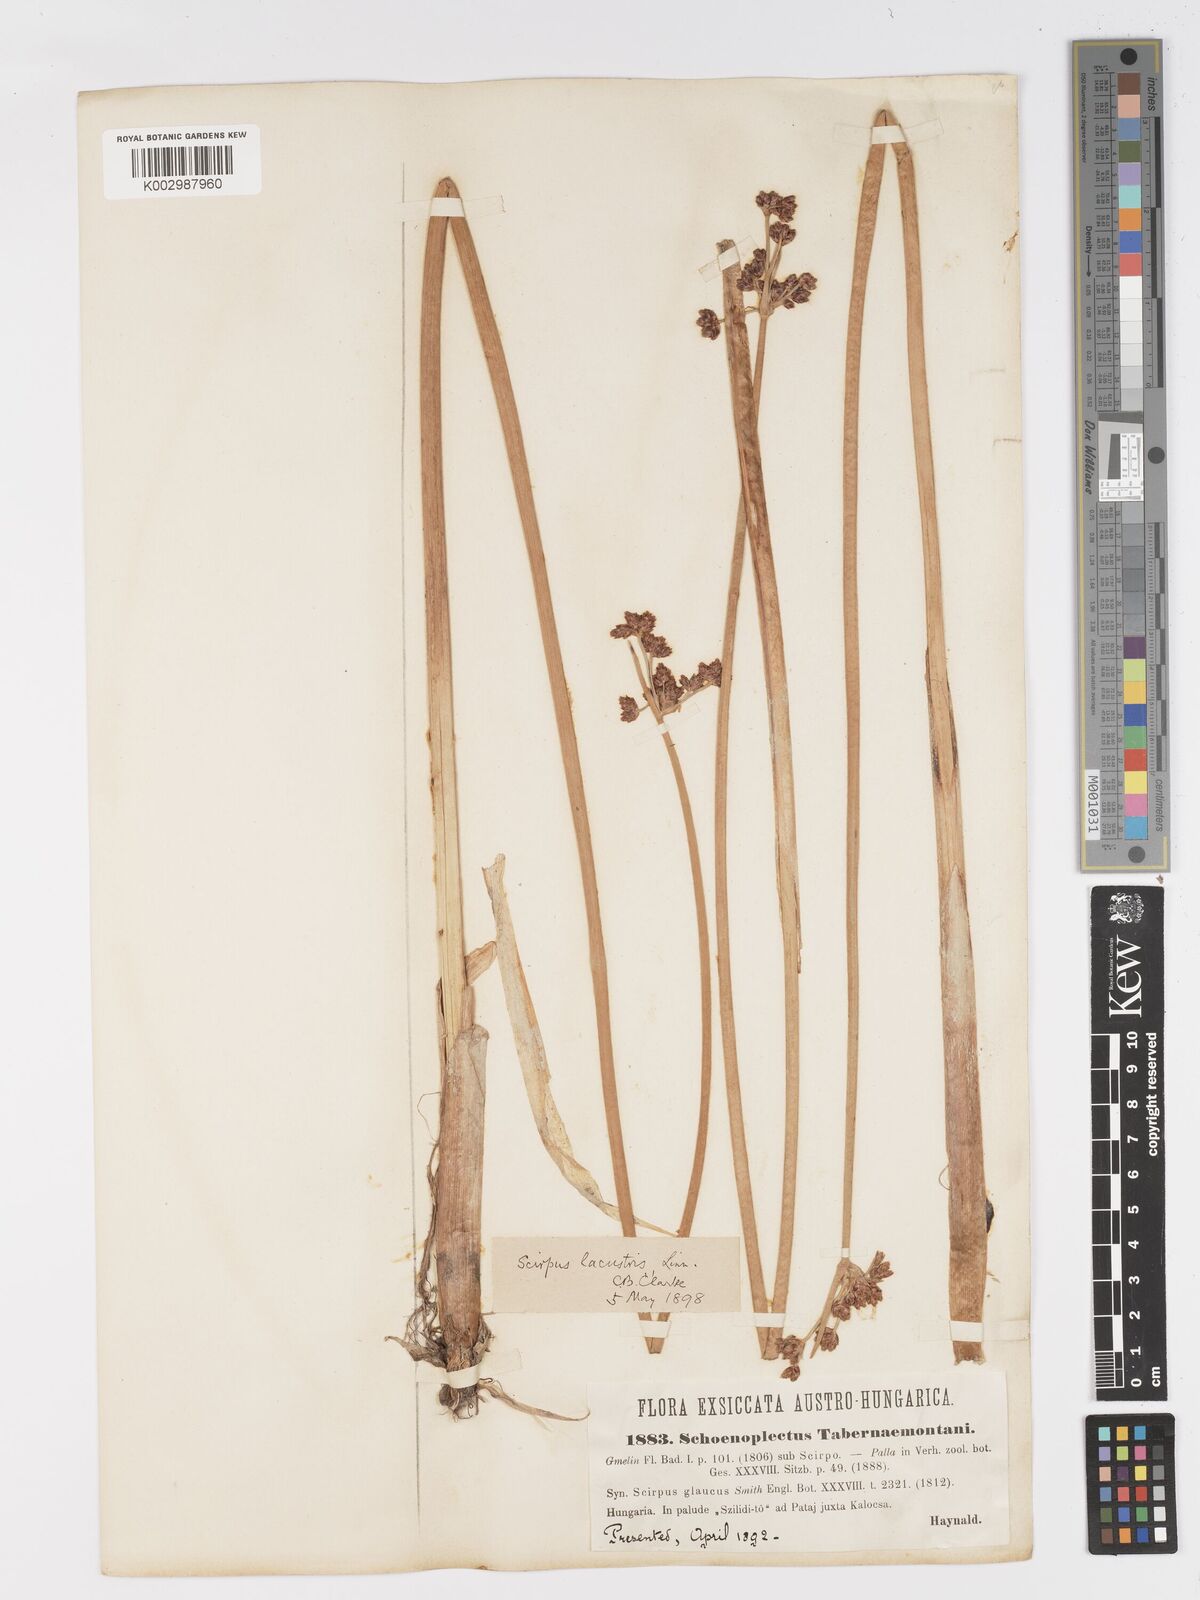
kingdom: Plantae
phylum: Tracheophyta
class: Liliopsida
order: Poales
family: Cyperaceae
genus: Schoenoplectus
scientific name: Schoenoplectus tabernaemontani
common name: Grey club-rush
